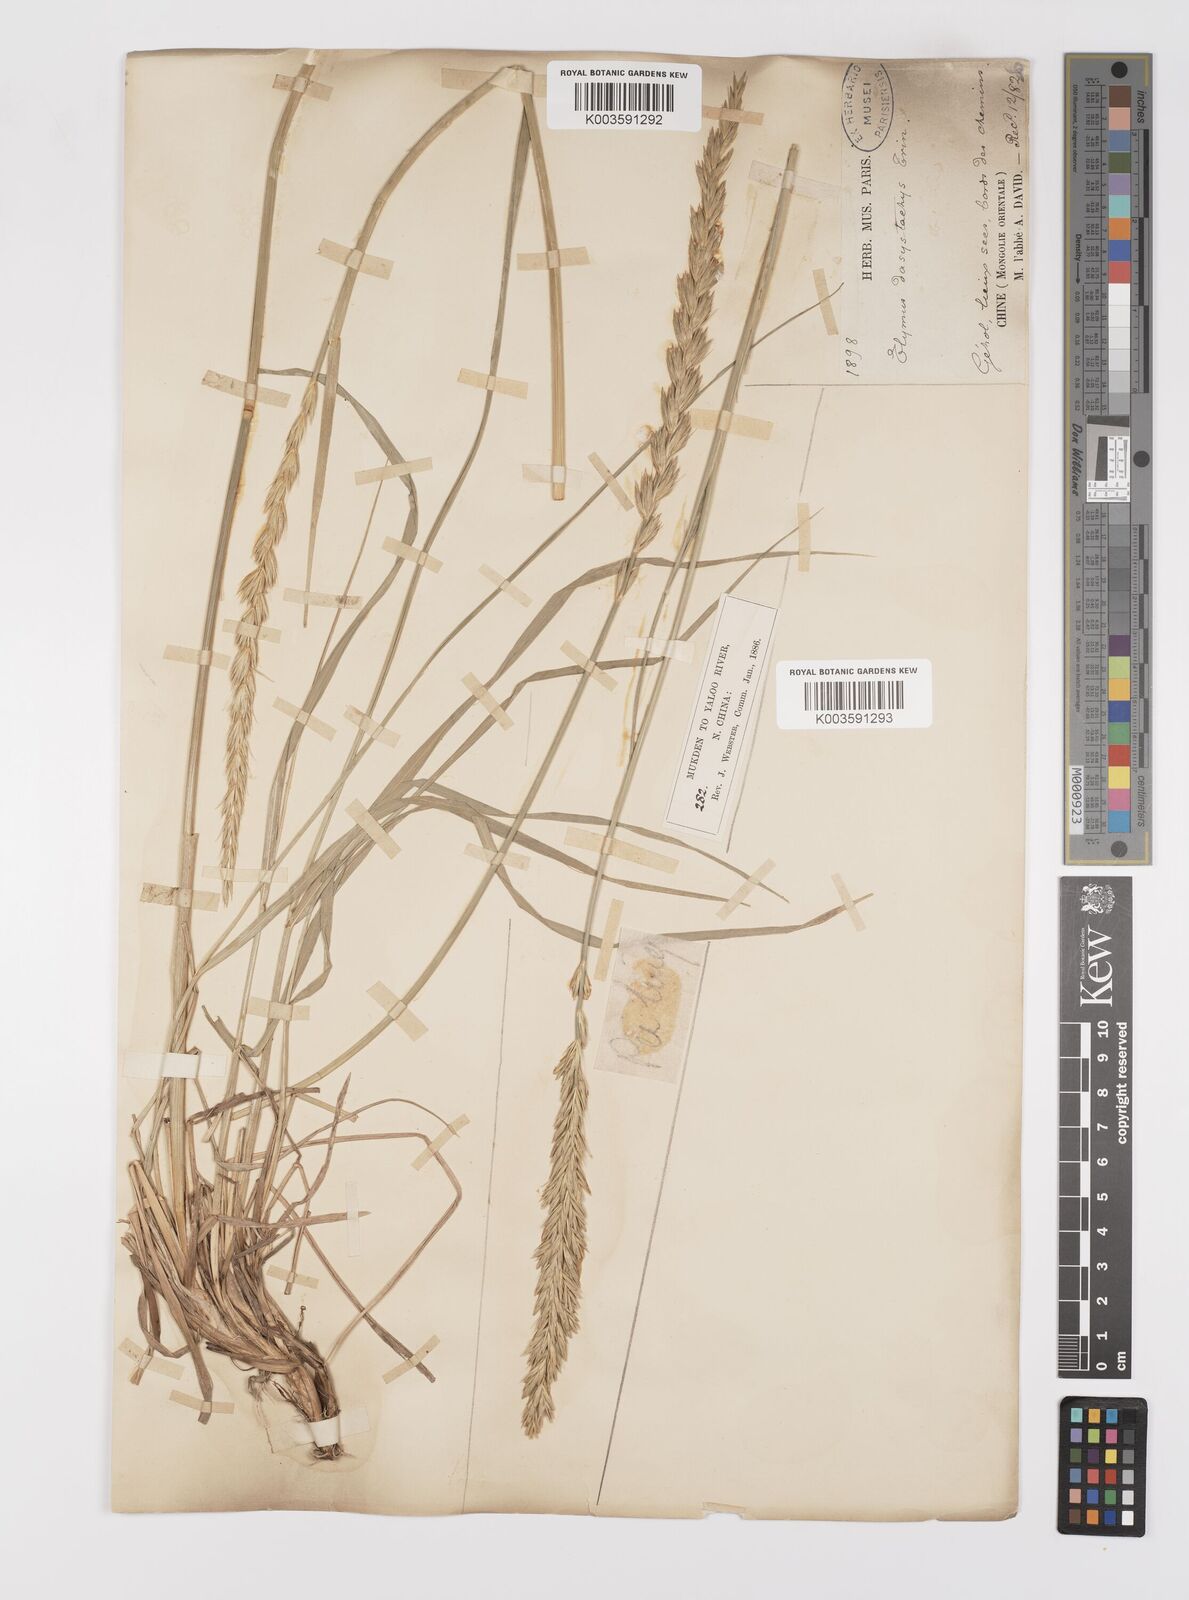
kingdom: Plantae
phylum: Tracheophyta
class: Liliopsida
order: Poales
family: Poaceae
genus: Leymus
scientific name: Leymus secalinus
